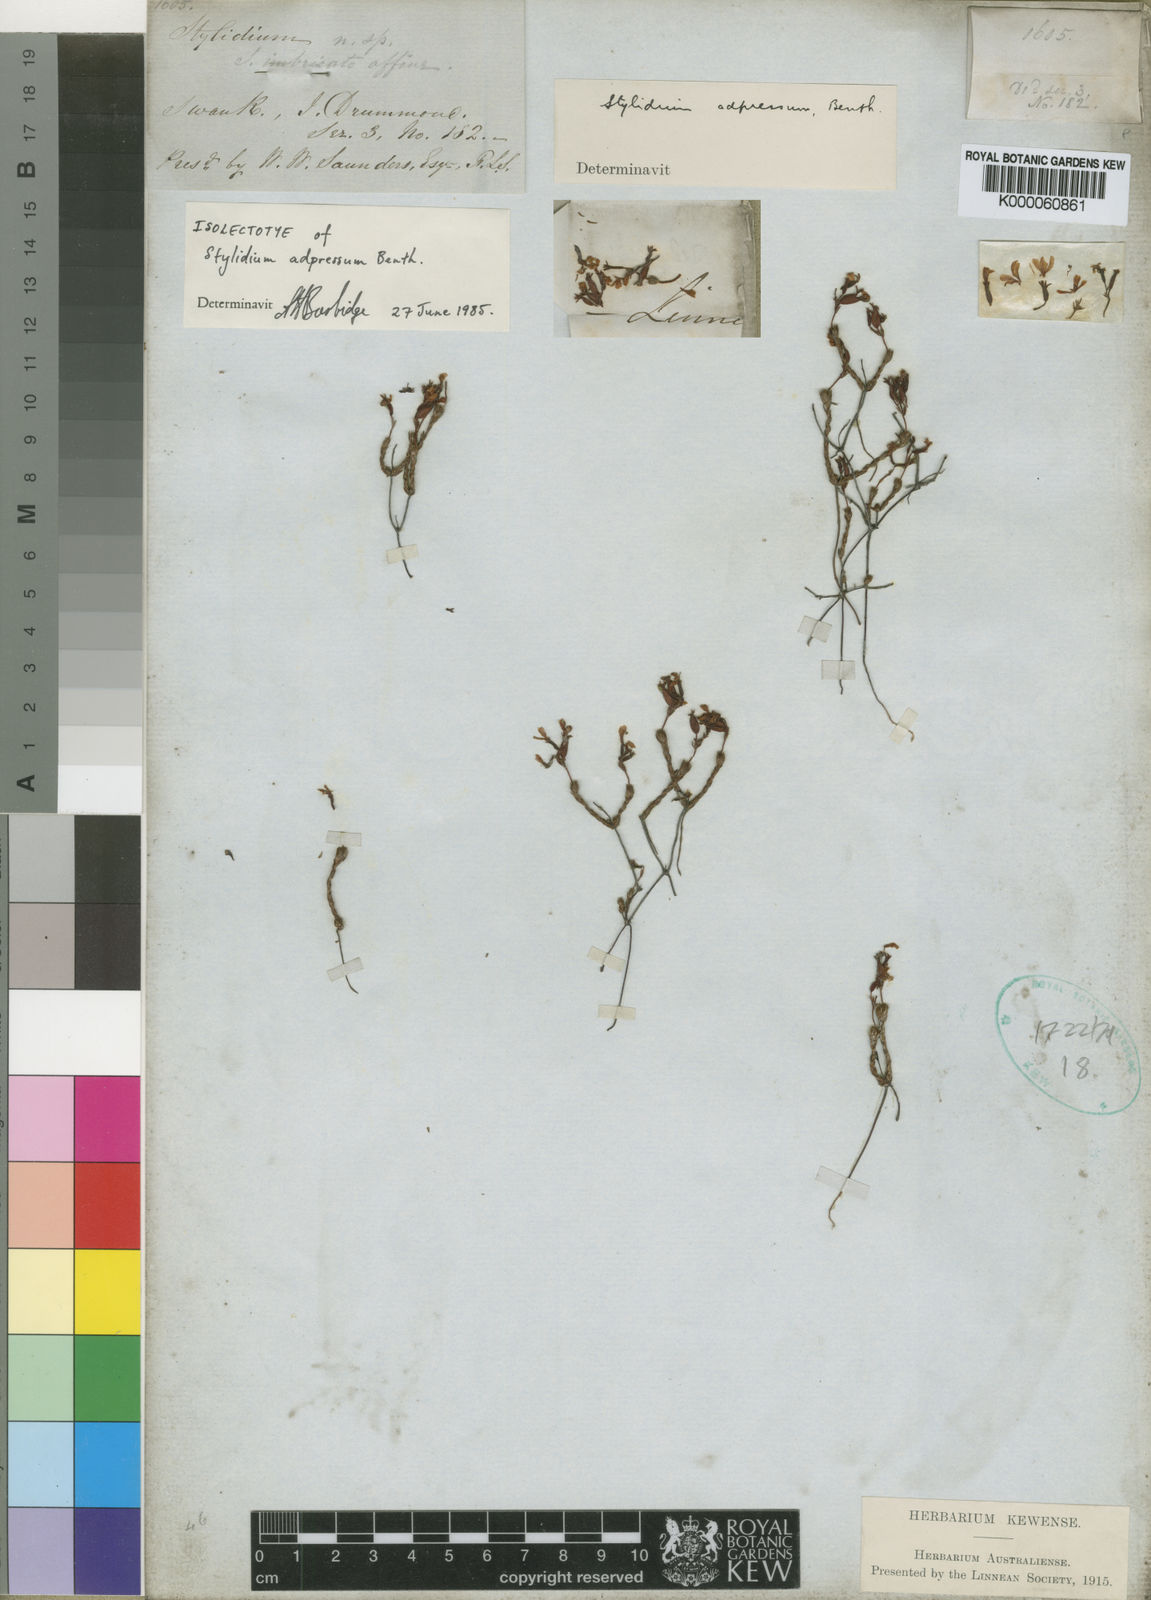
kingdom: Plantae
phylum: Tracheophyta
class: Magnoliopsida
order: Asterales
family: Stylidiaceae
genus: Stylidium
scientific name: Stylidium adpressum
